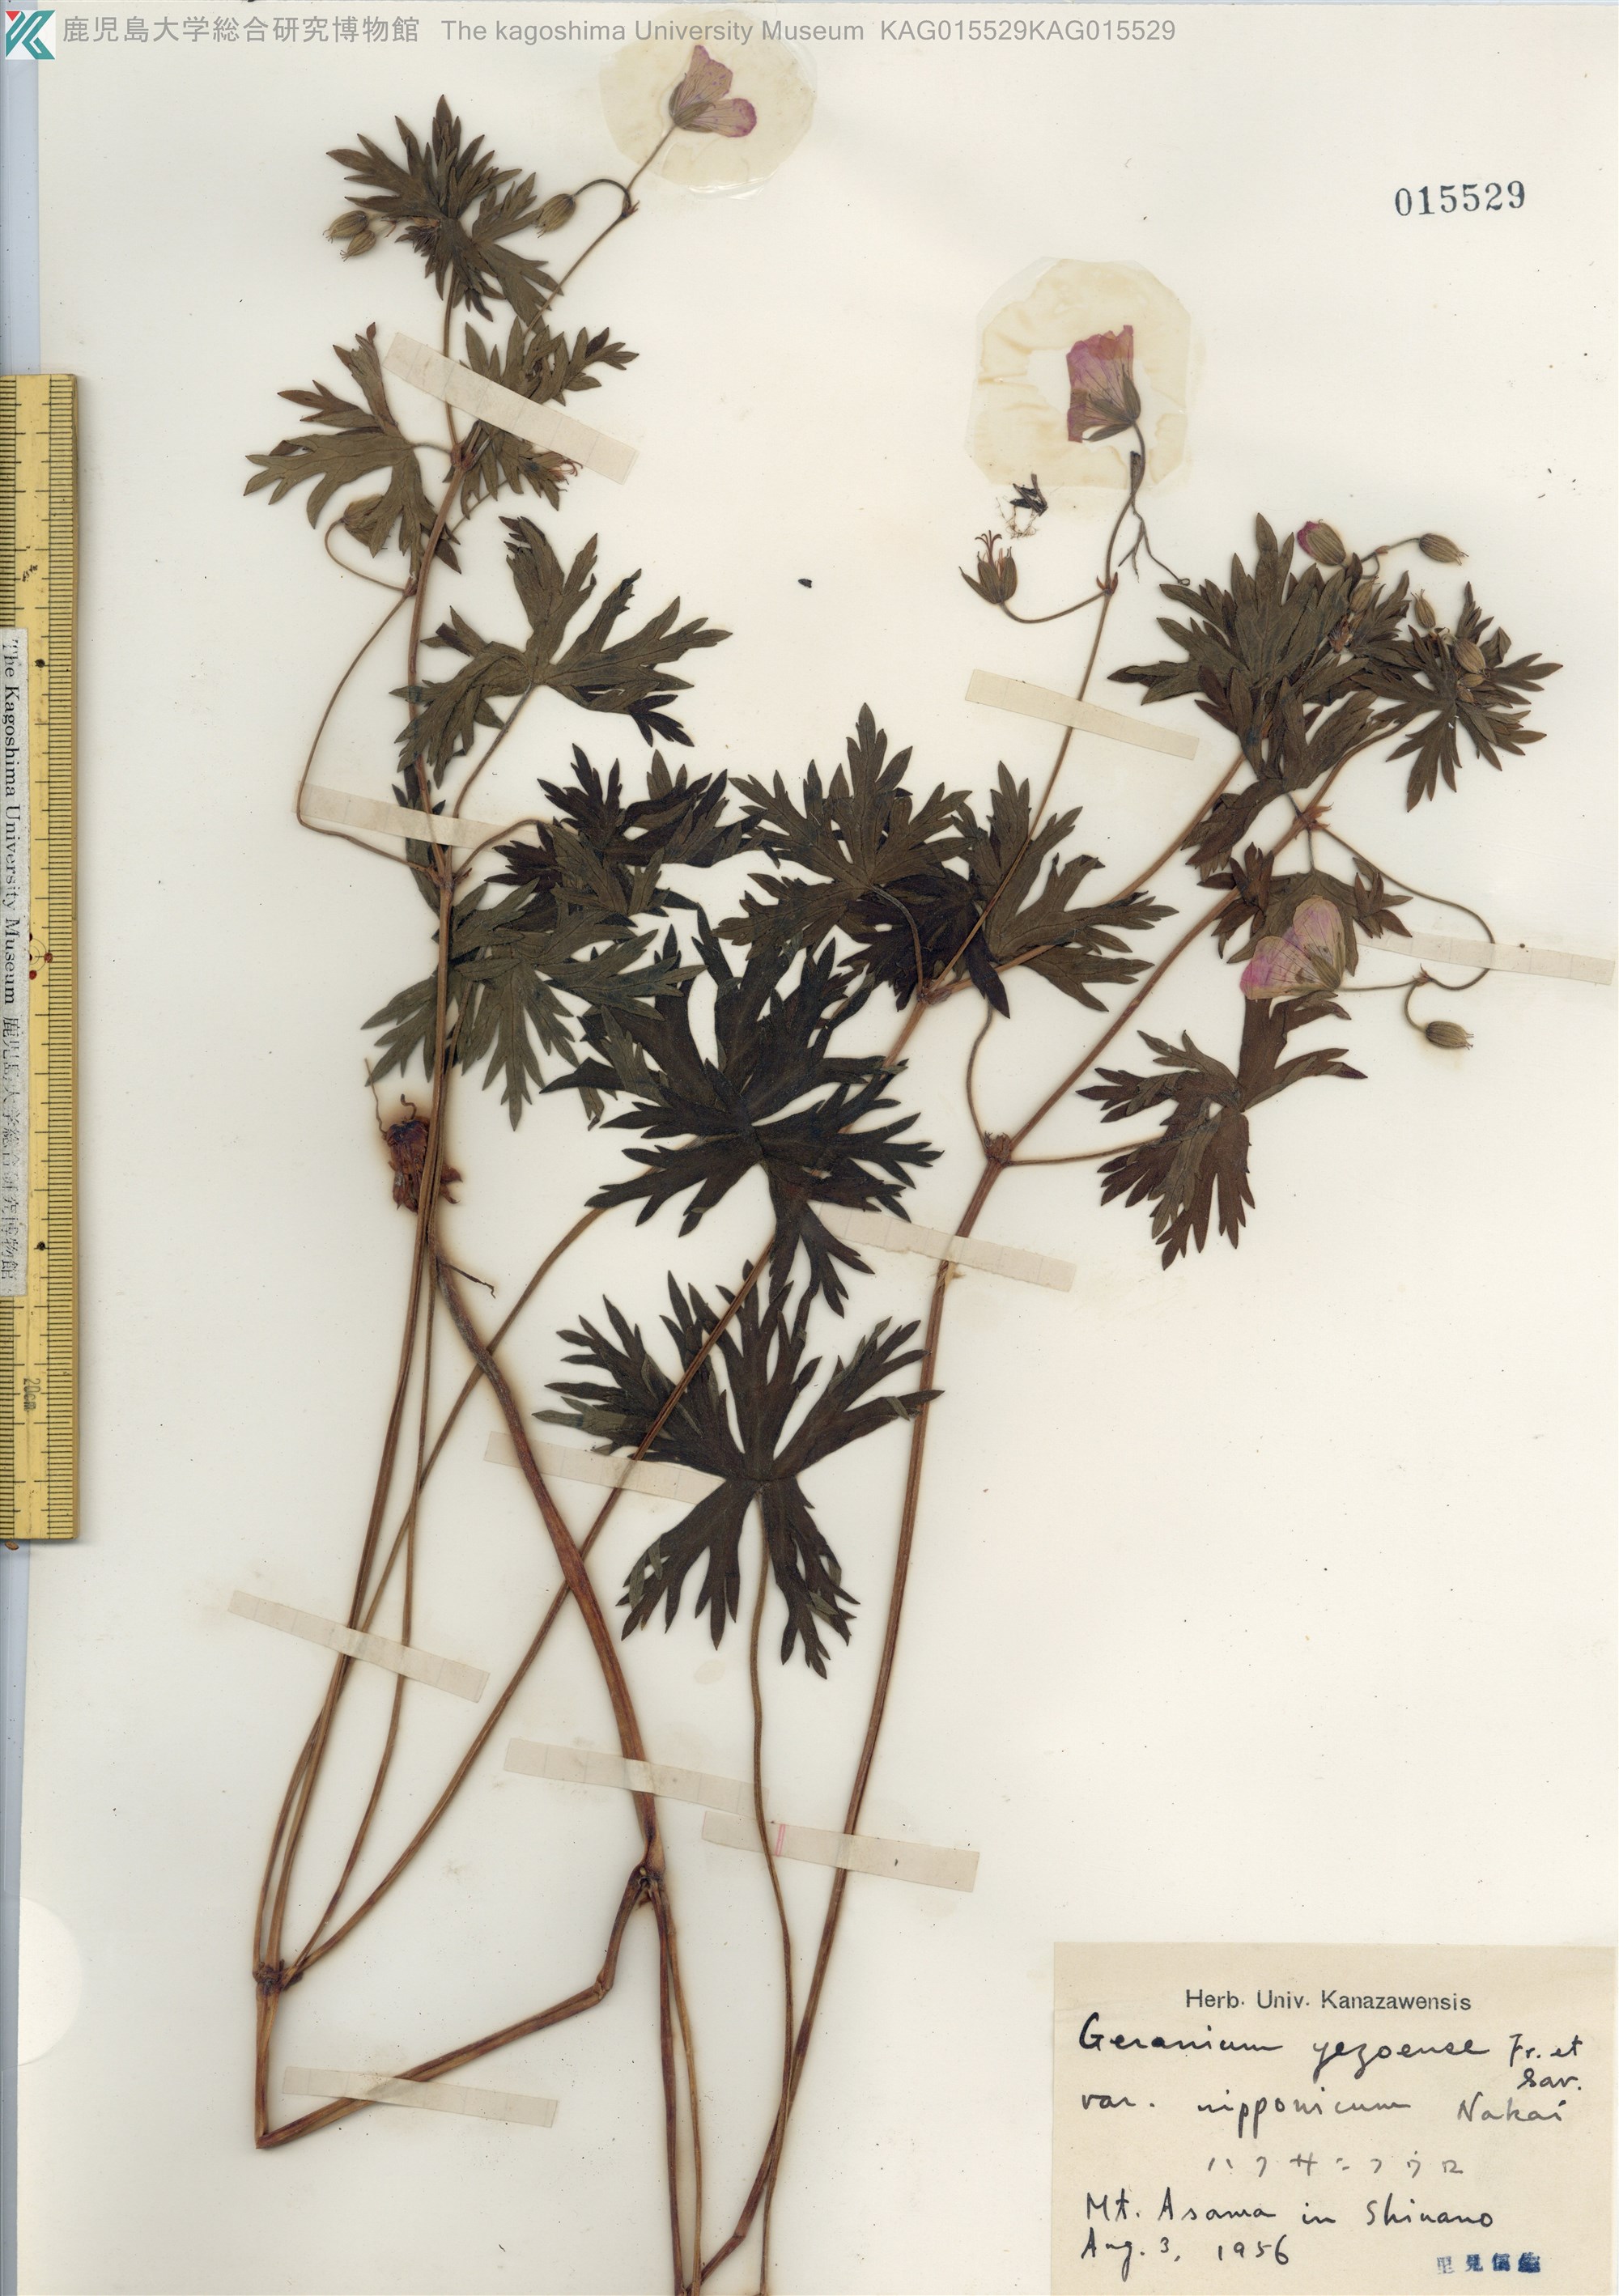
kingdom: Plantae
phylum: Tracheophyta
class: Magnoliopsida
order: Geraniales
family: Geraniaceae
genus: Geranium
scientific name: Geranium yesoense
